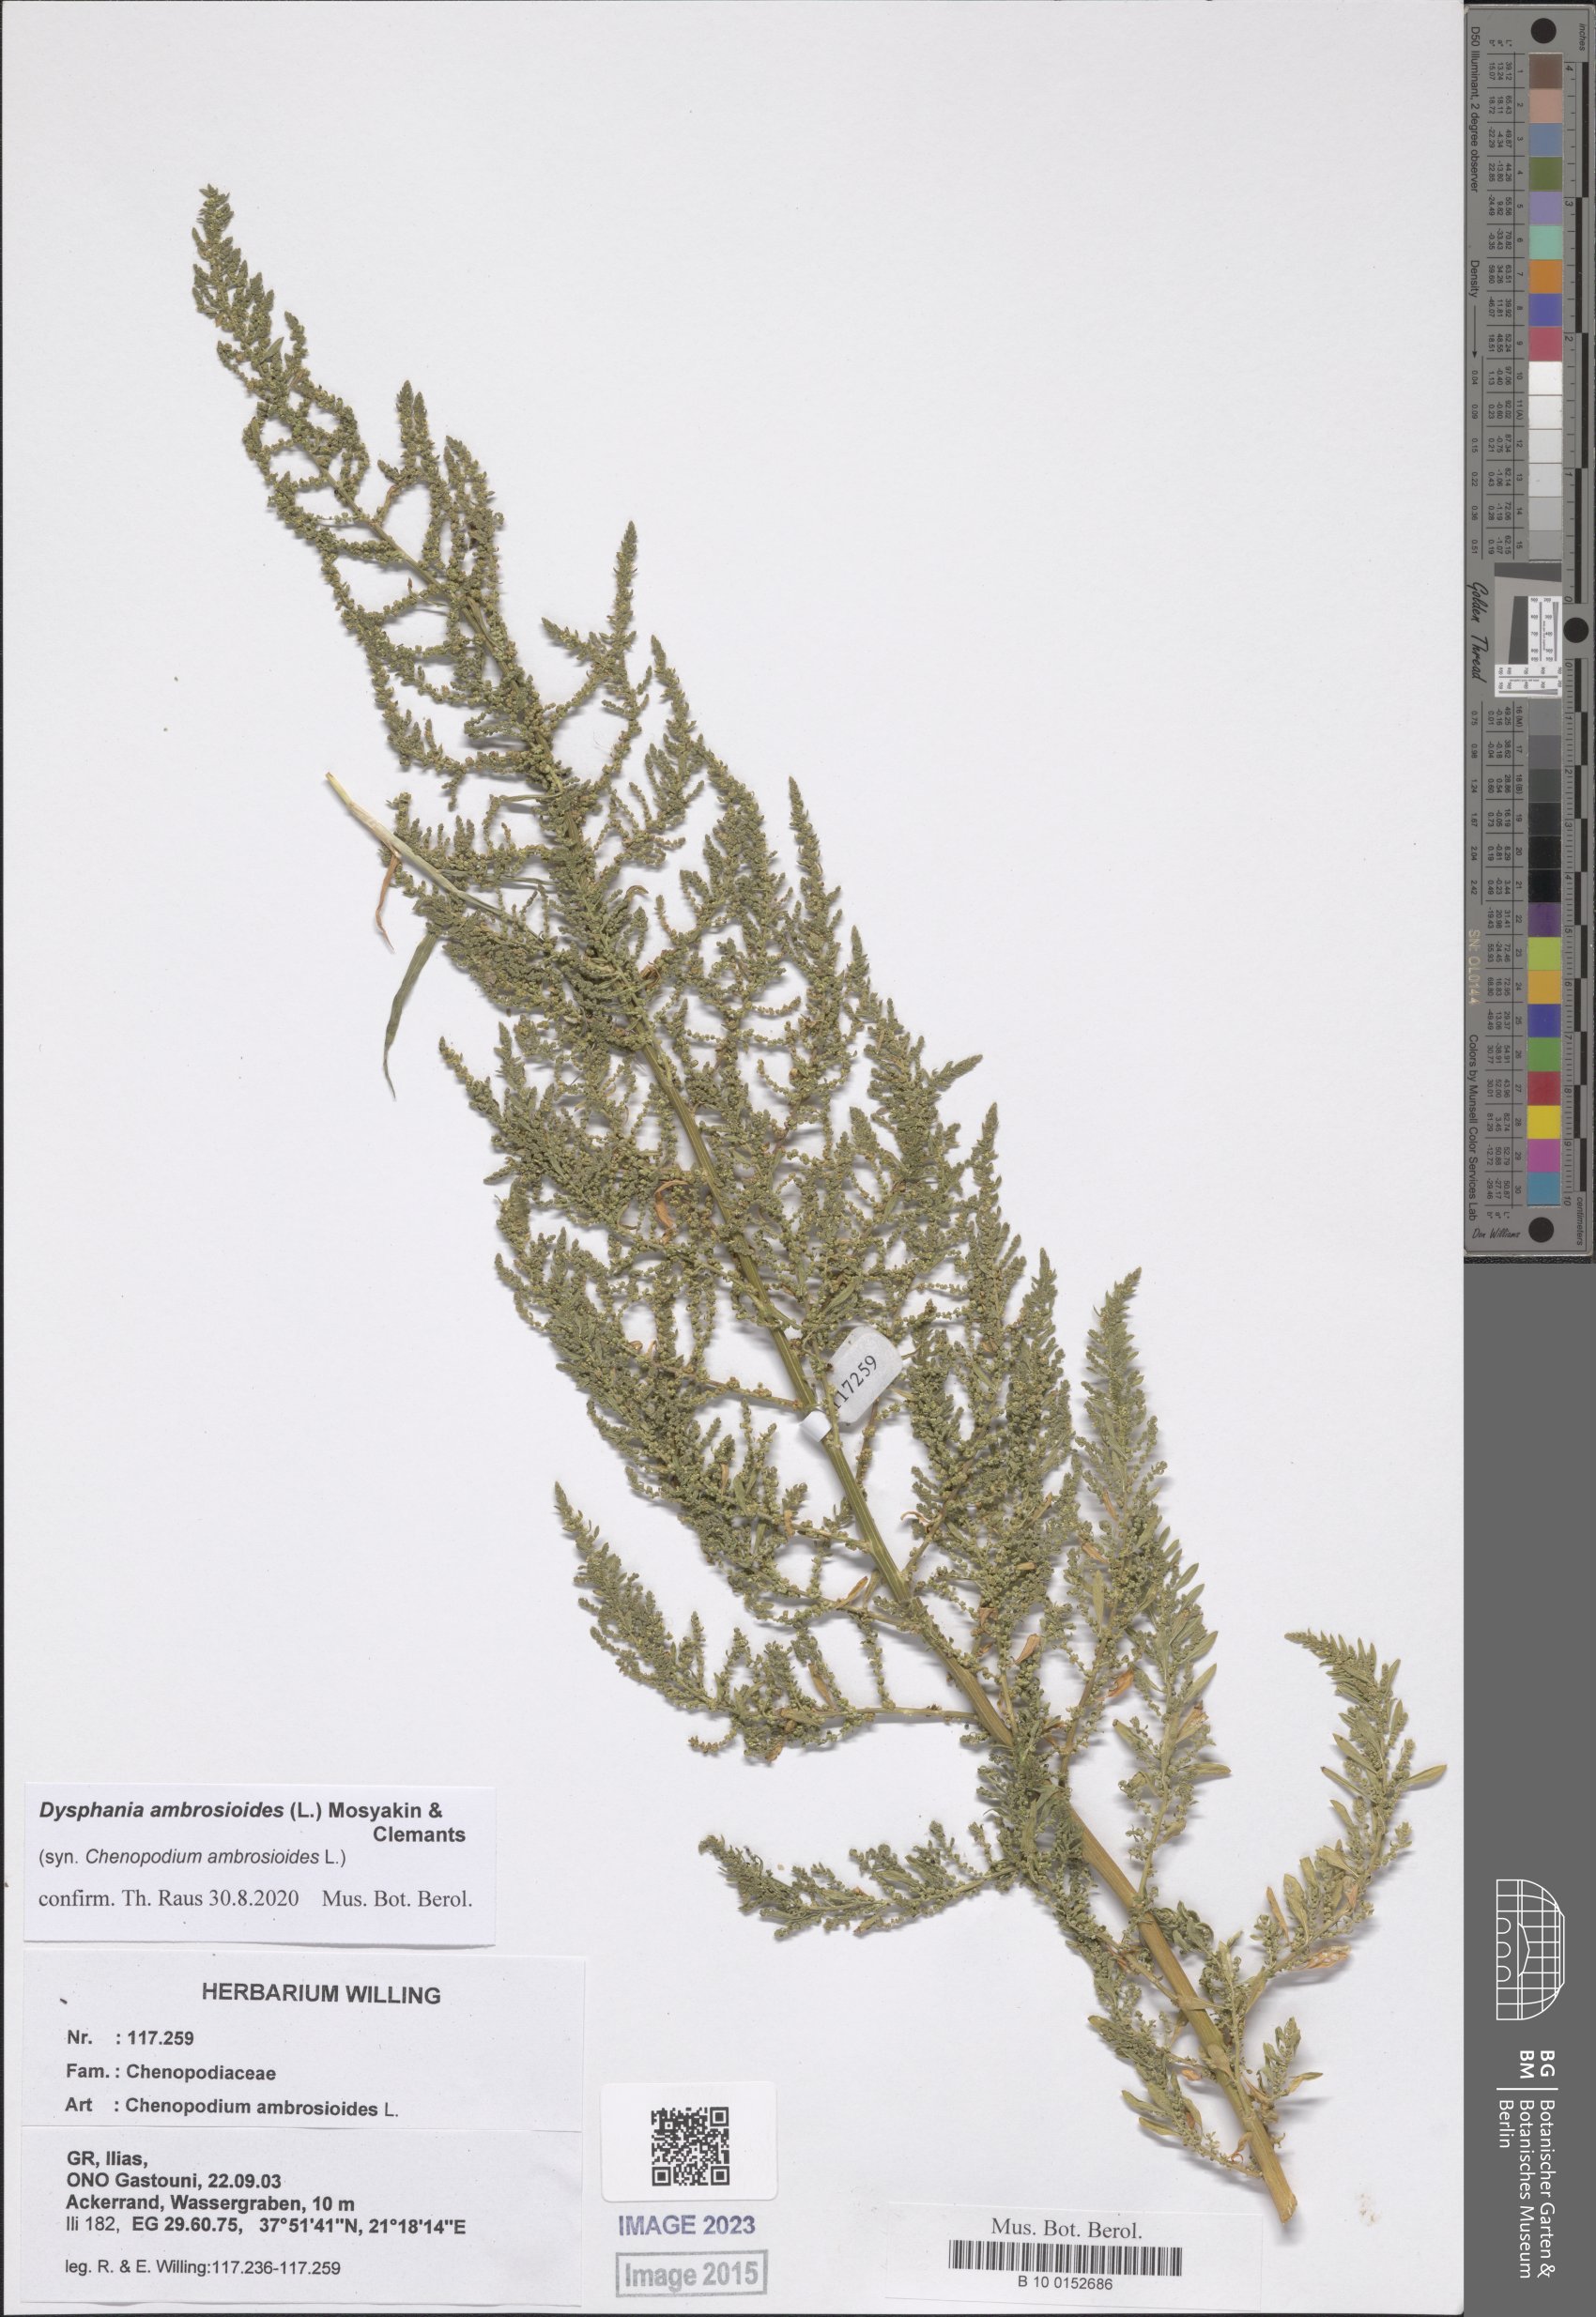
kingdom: Plantae
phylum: Tracheophyta
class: Magnoliopsida
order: Caryophyllales
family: Amaranthaceae
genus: Dysphania
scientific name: Dysphania ambrosioides
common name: Wormseed
